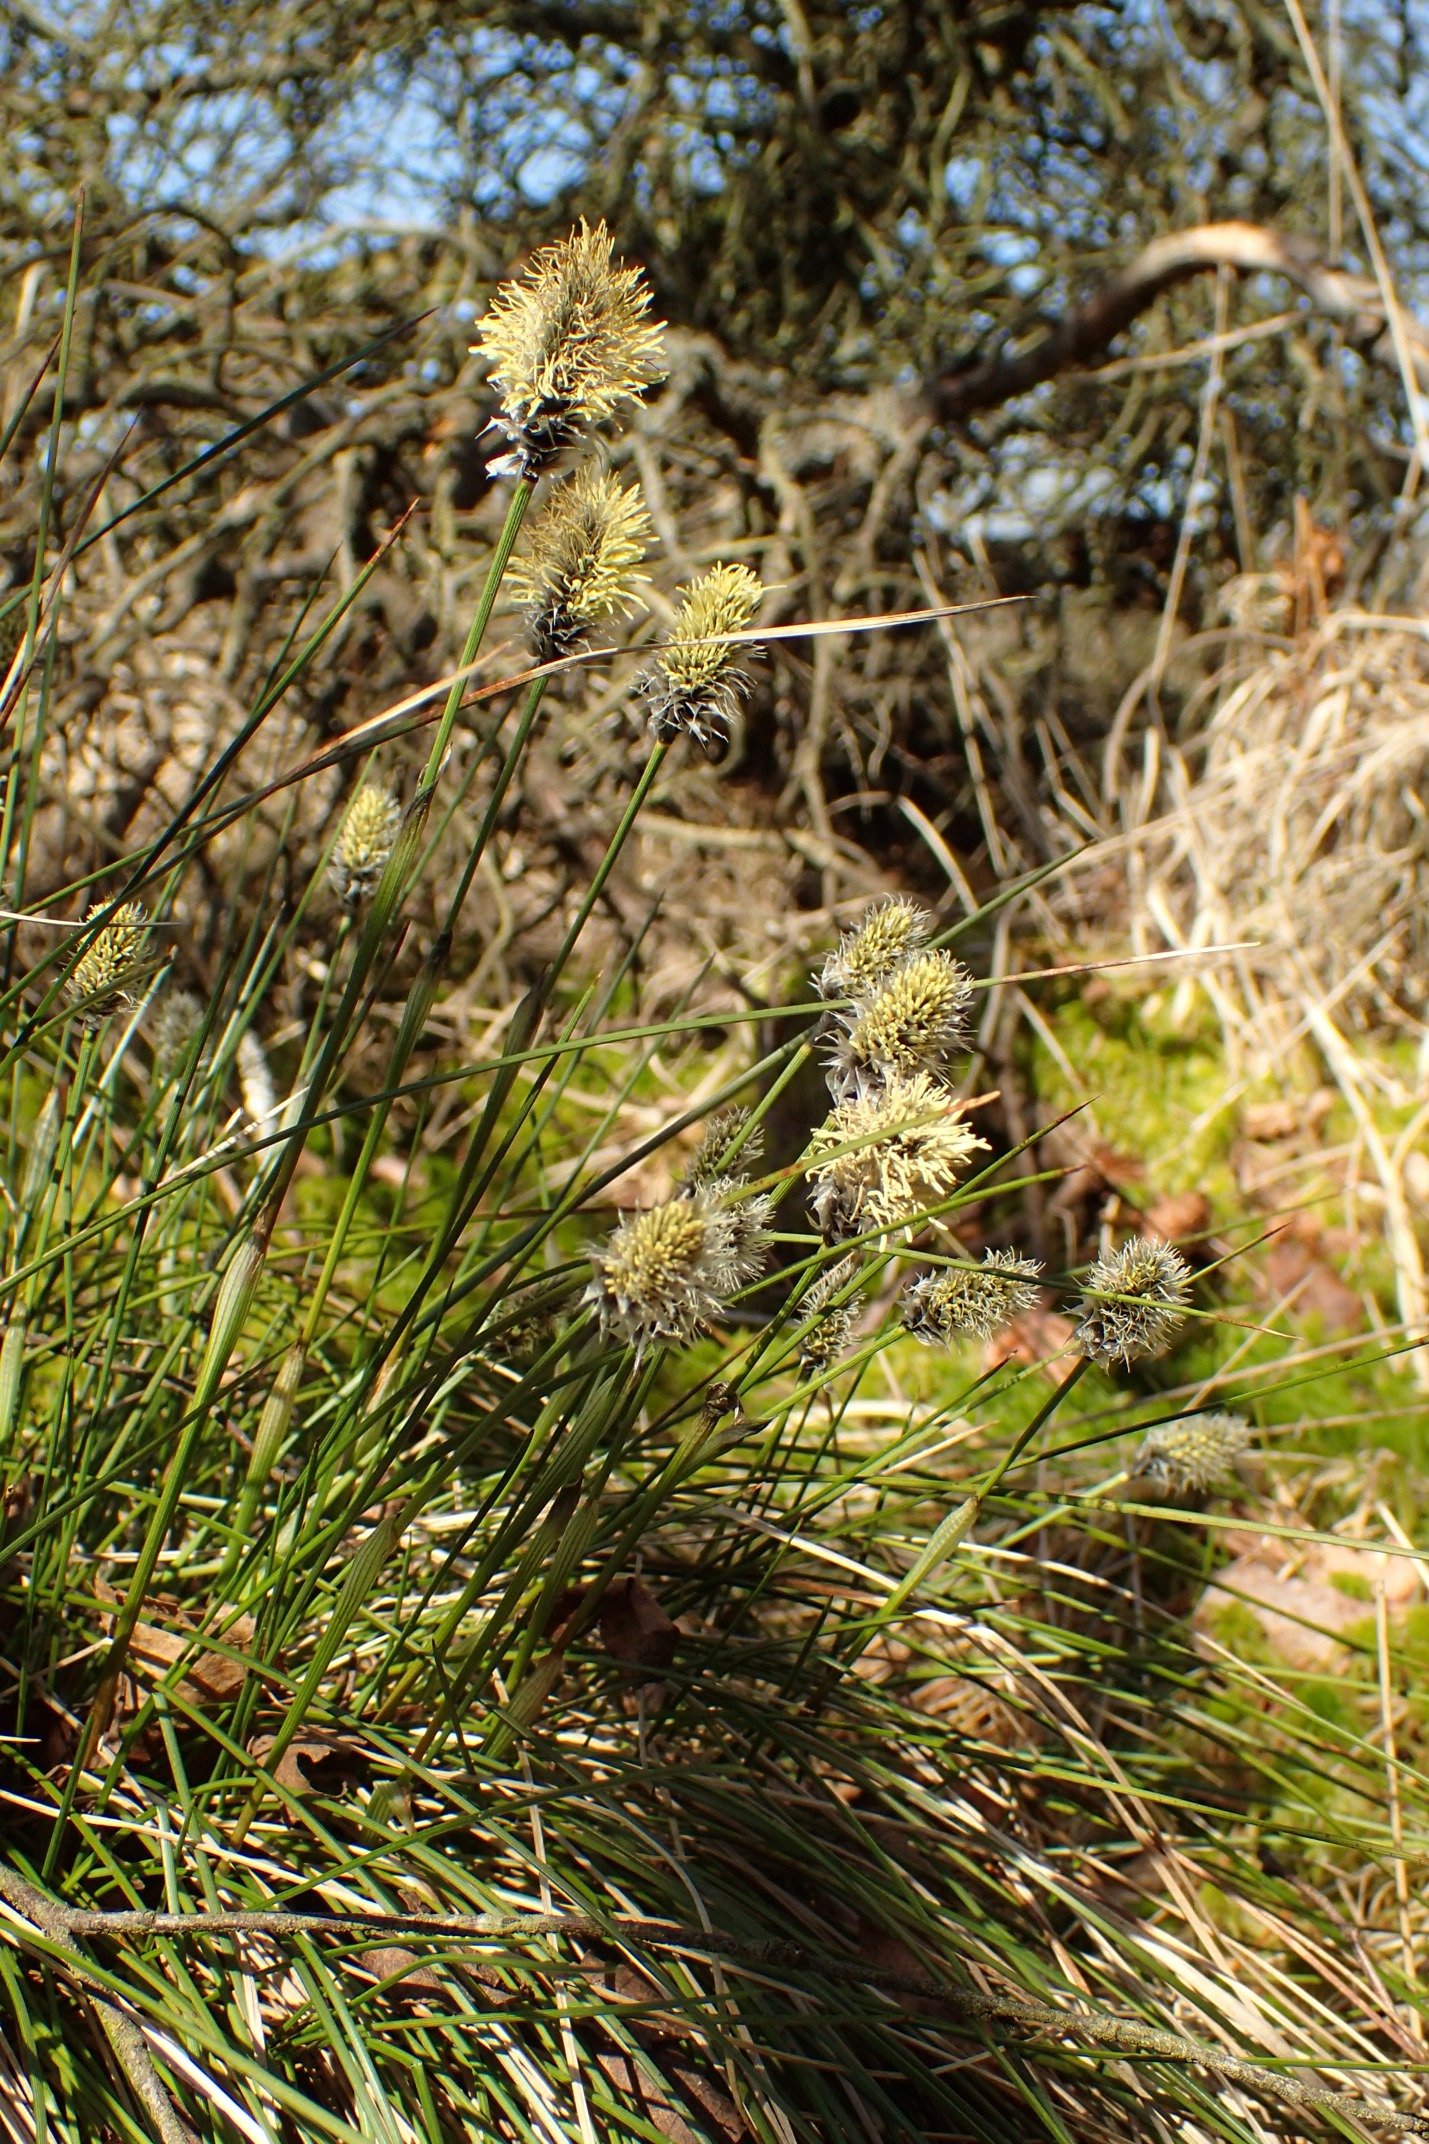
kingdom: Plantae
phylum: Tracheophyta
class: Liliopsida
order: Poales
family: Cyperaceae
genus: Eriophorum
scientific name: Eriophorum vaginatum
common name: Tue-kæruld
